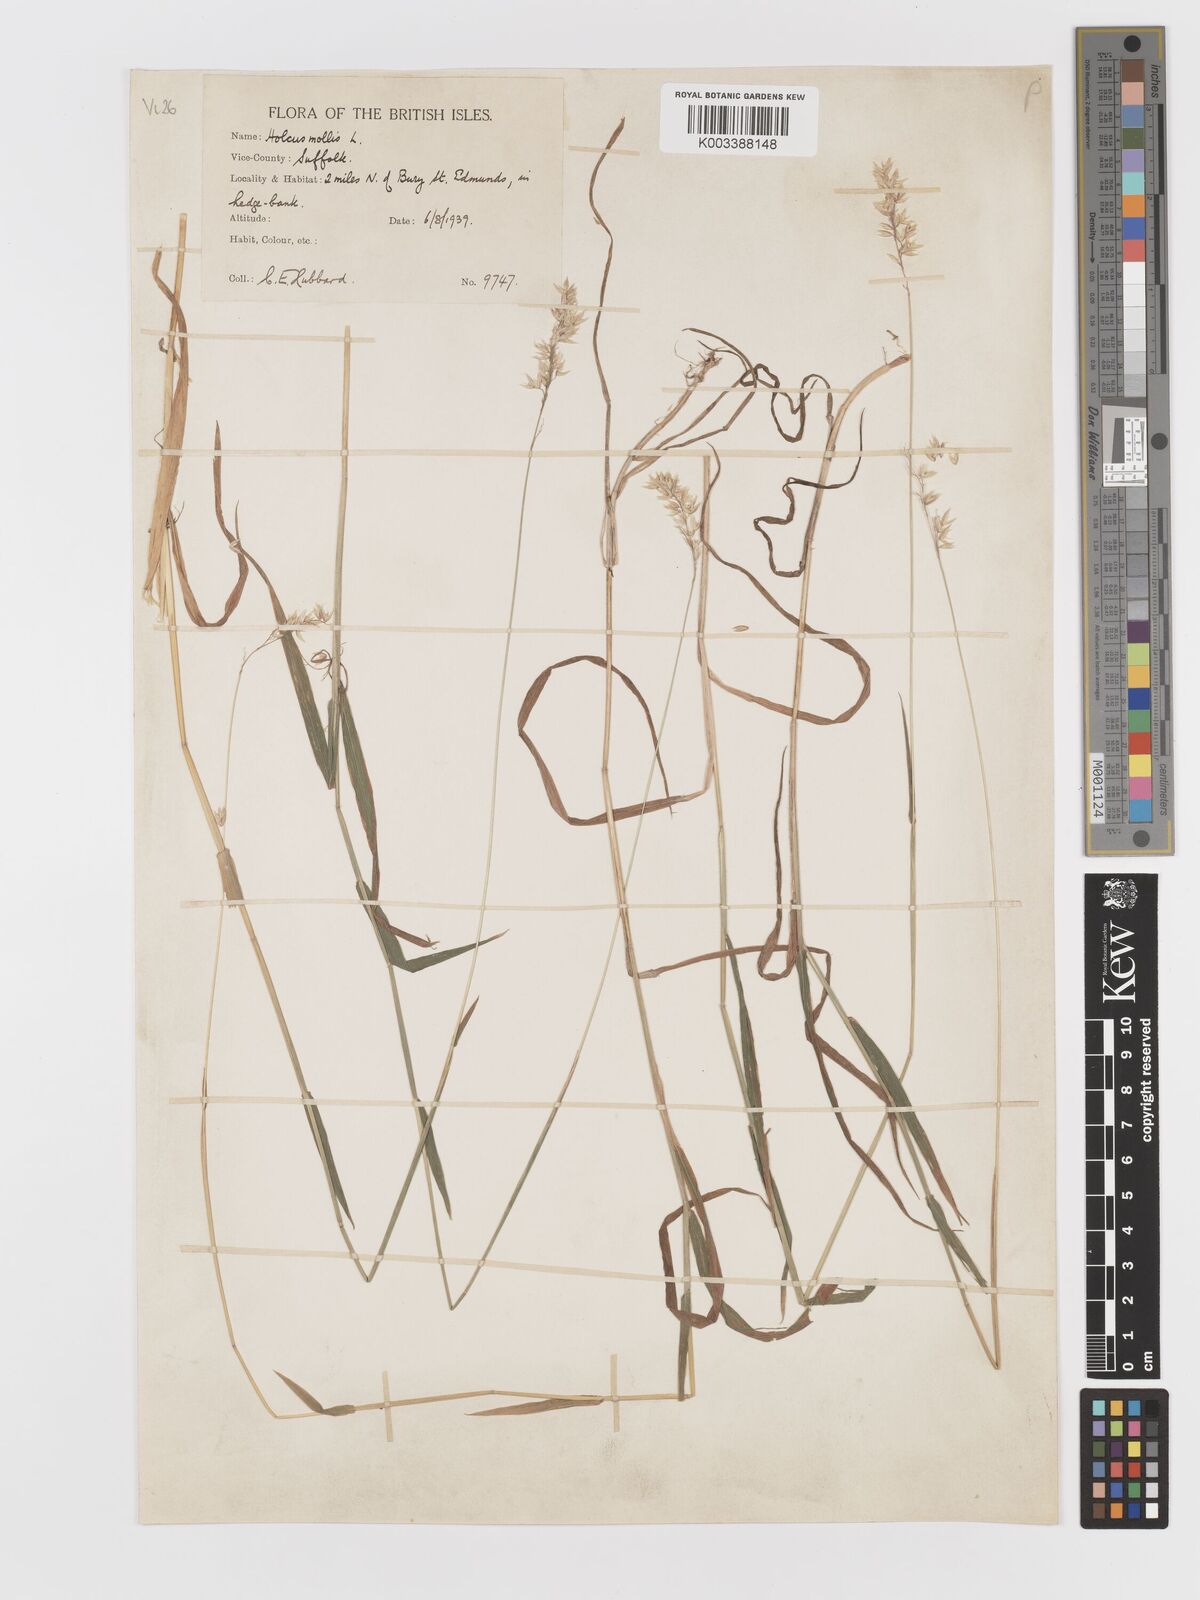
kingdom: Plantae
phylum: Tracheophyta
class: Liliopsida
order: Poales
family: Poaceae
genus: Holcus
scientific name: Holcus mollis
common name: Creeping velvetgrass
